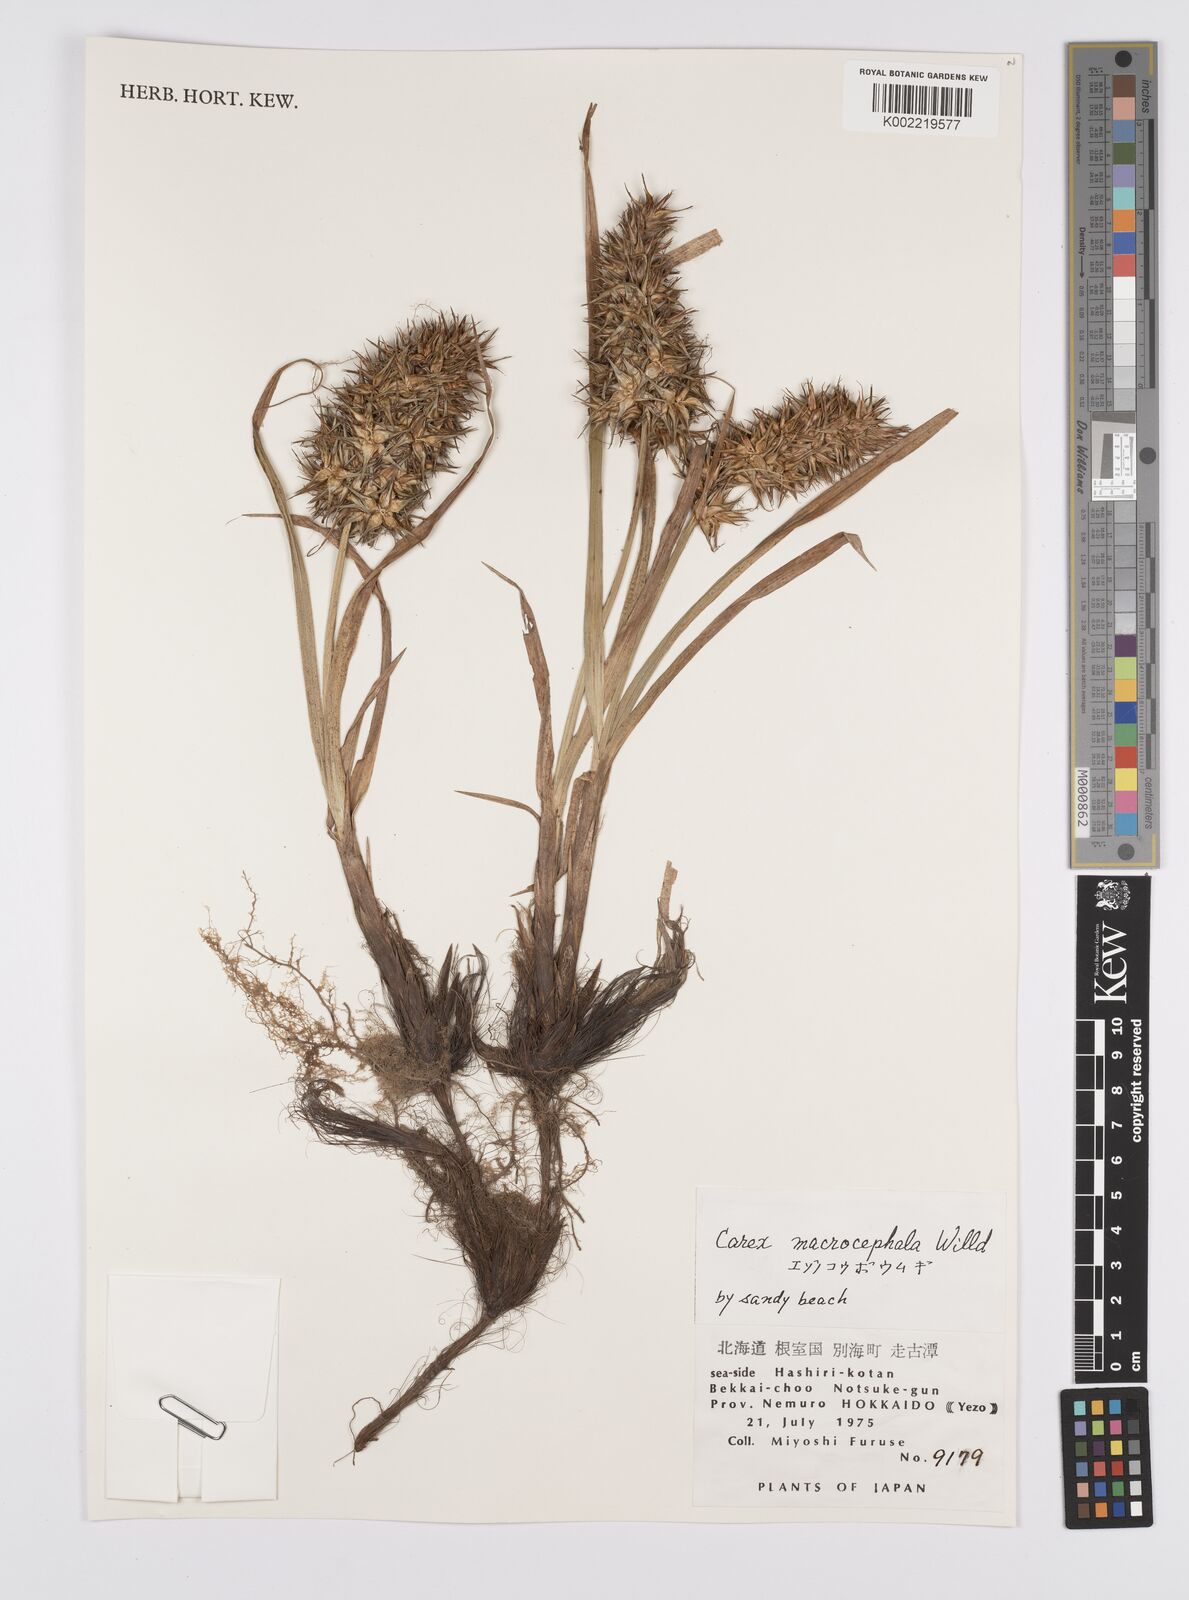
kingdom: Plantae
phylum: Tracheophyta
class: Liliopsida
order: Poales
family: Cyperaceae
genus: Carex
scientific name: Carex macrocephala
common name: Large-head sedge
